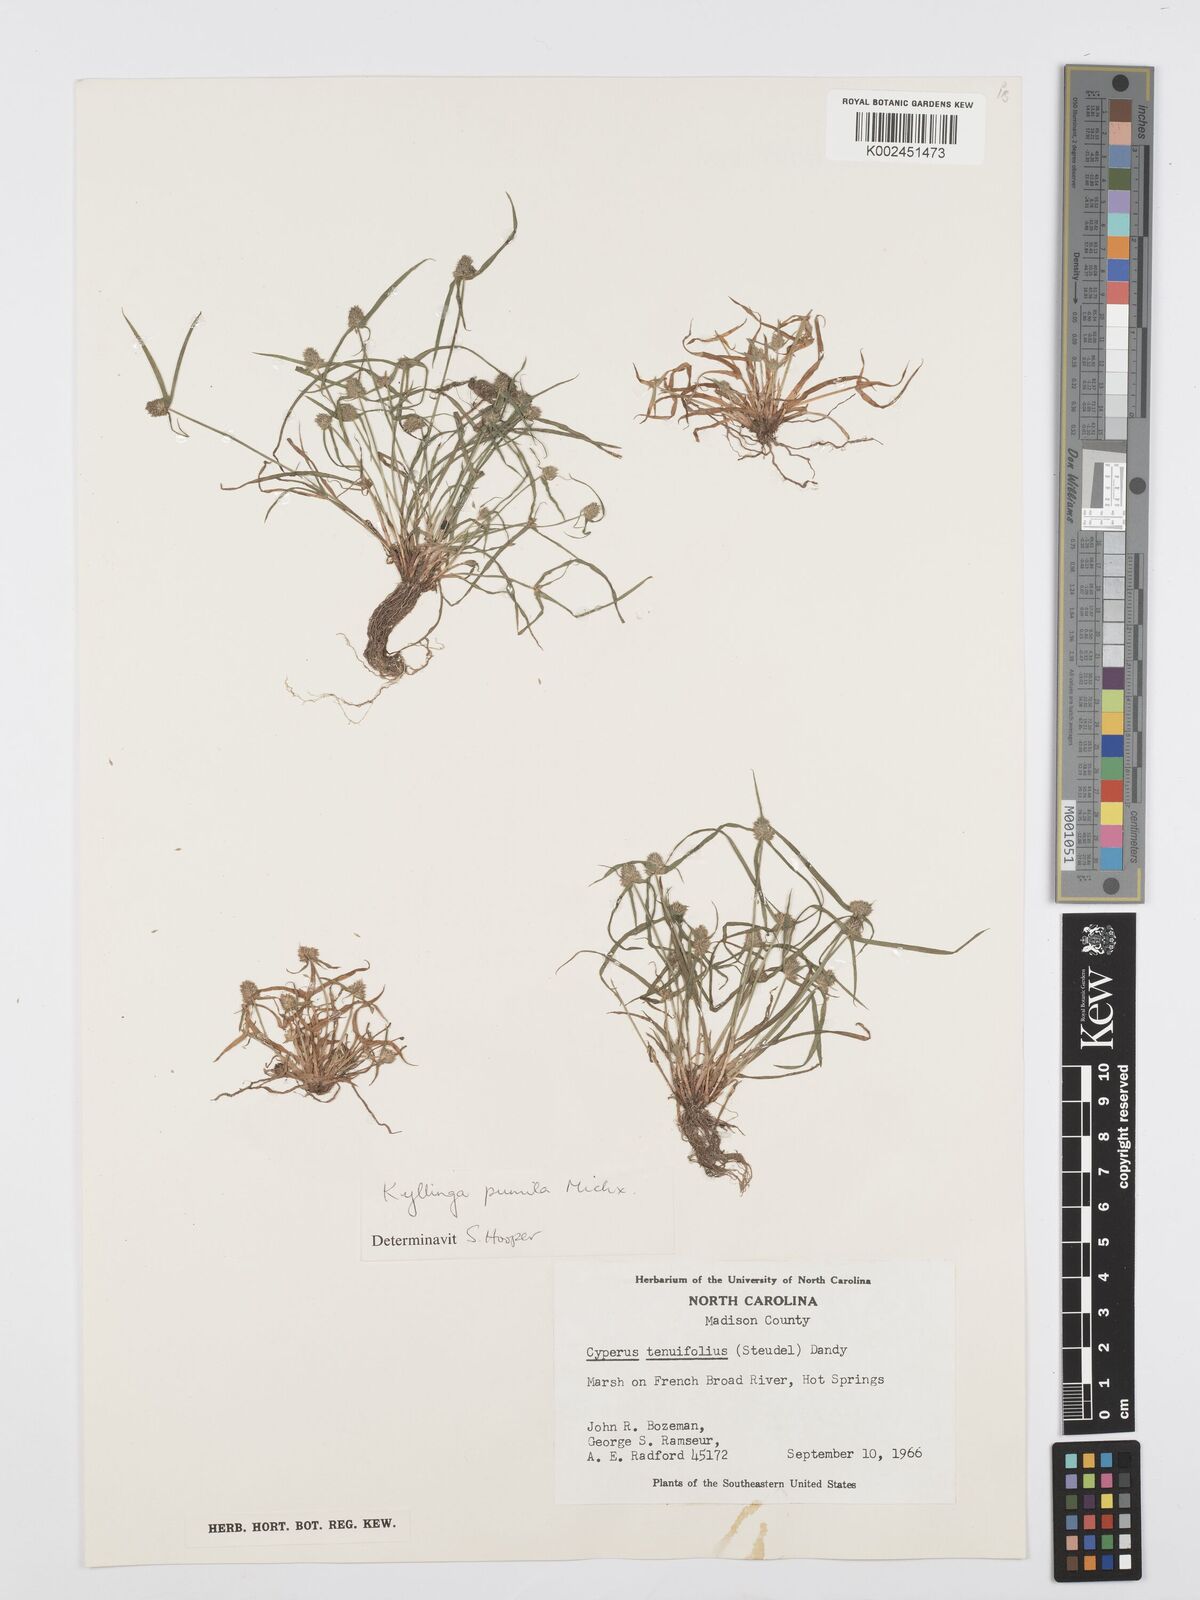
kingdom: Plantae
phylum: Tracheophyta
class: Liliopsida
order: Poales
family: Cyperaceae
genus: Cyperus
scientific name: Cyperus
